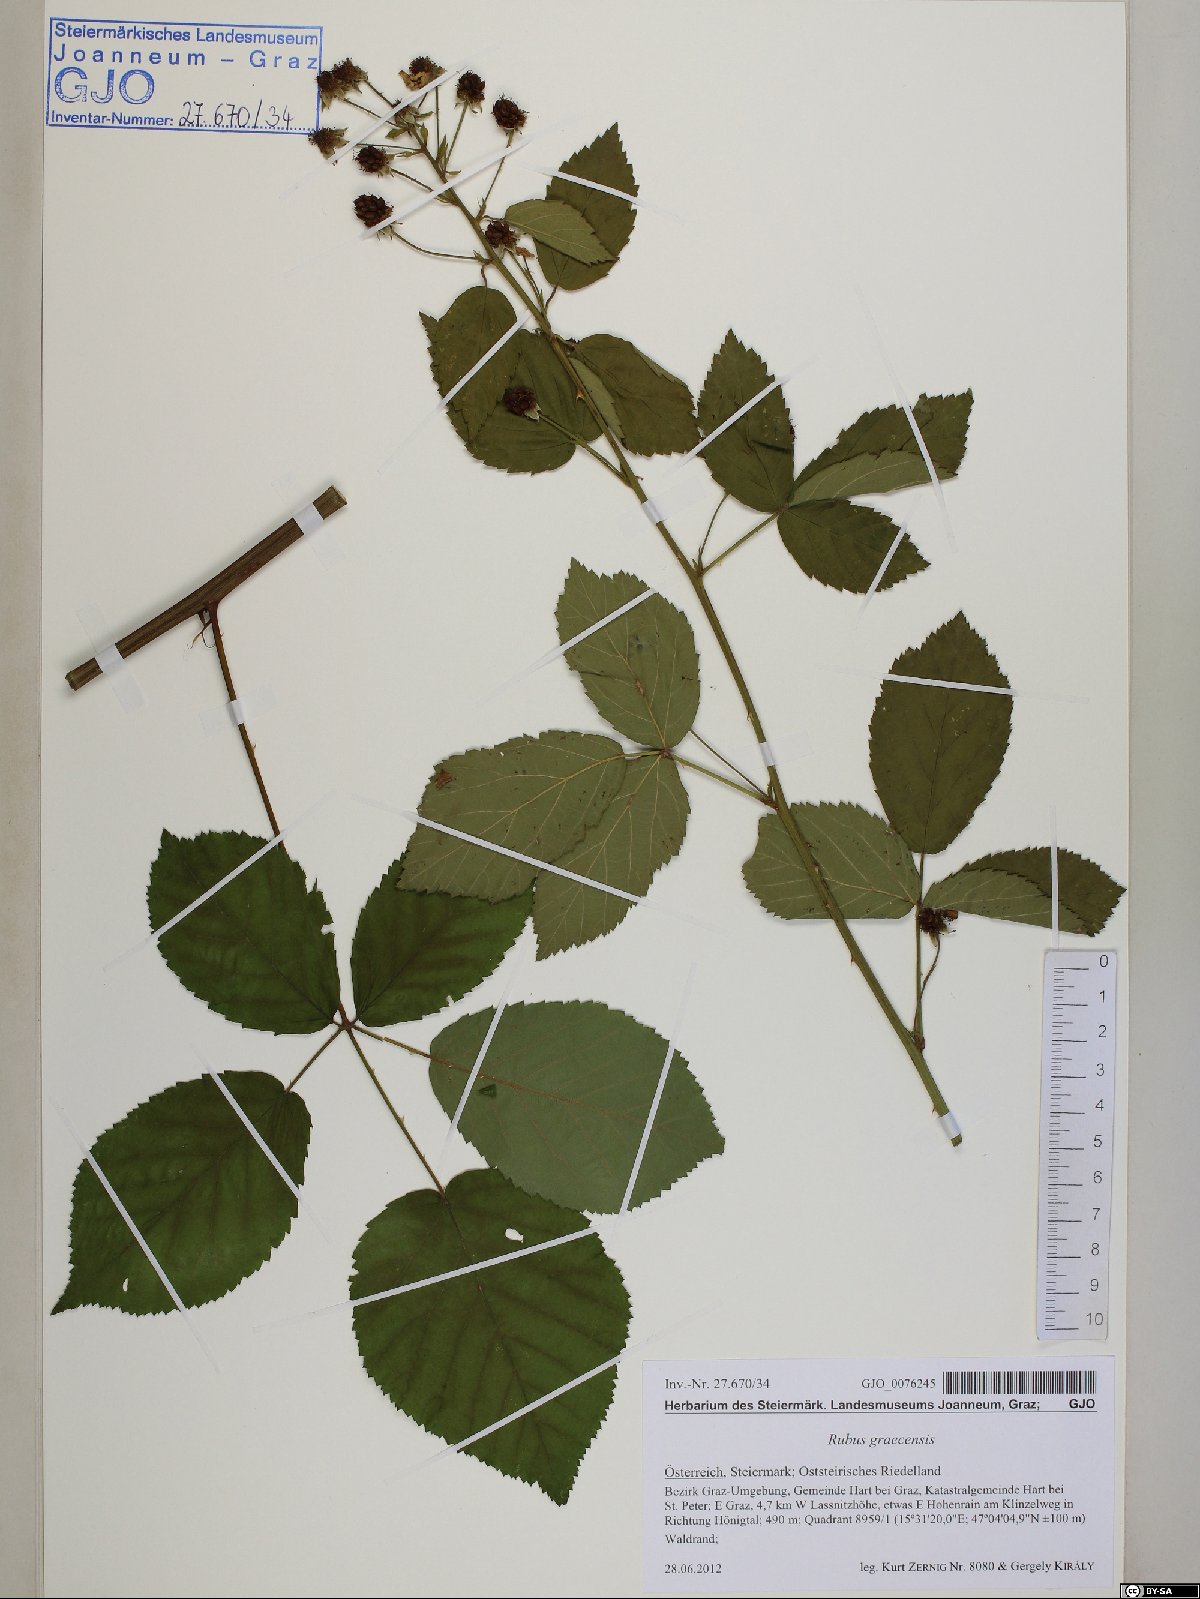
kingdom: Plantae
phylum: Tracheophyta
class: Magnoliopsida
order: Rosales
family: Rosaceae
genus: Rubus
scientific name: Rubus graecensis
